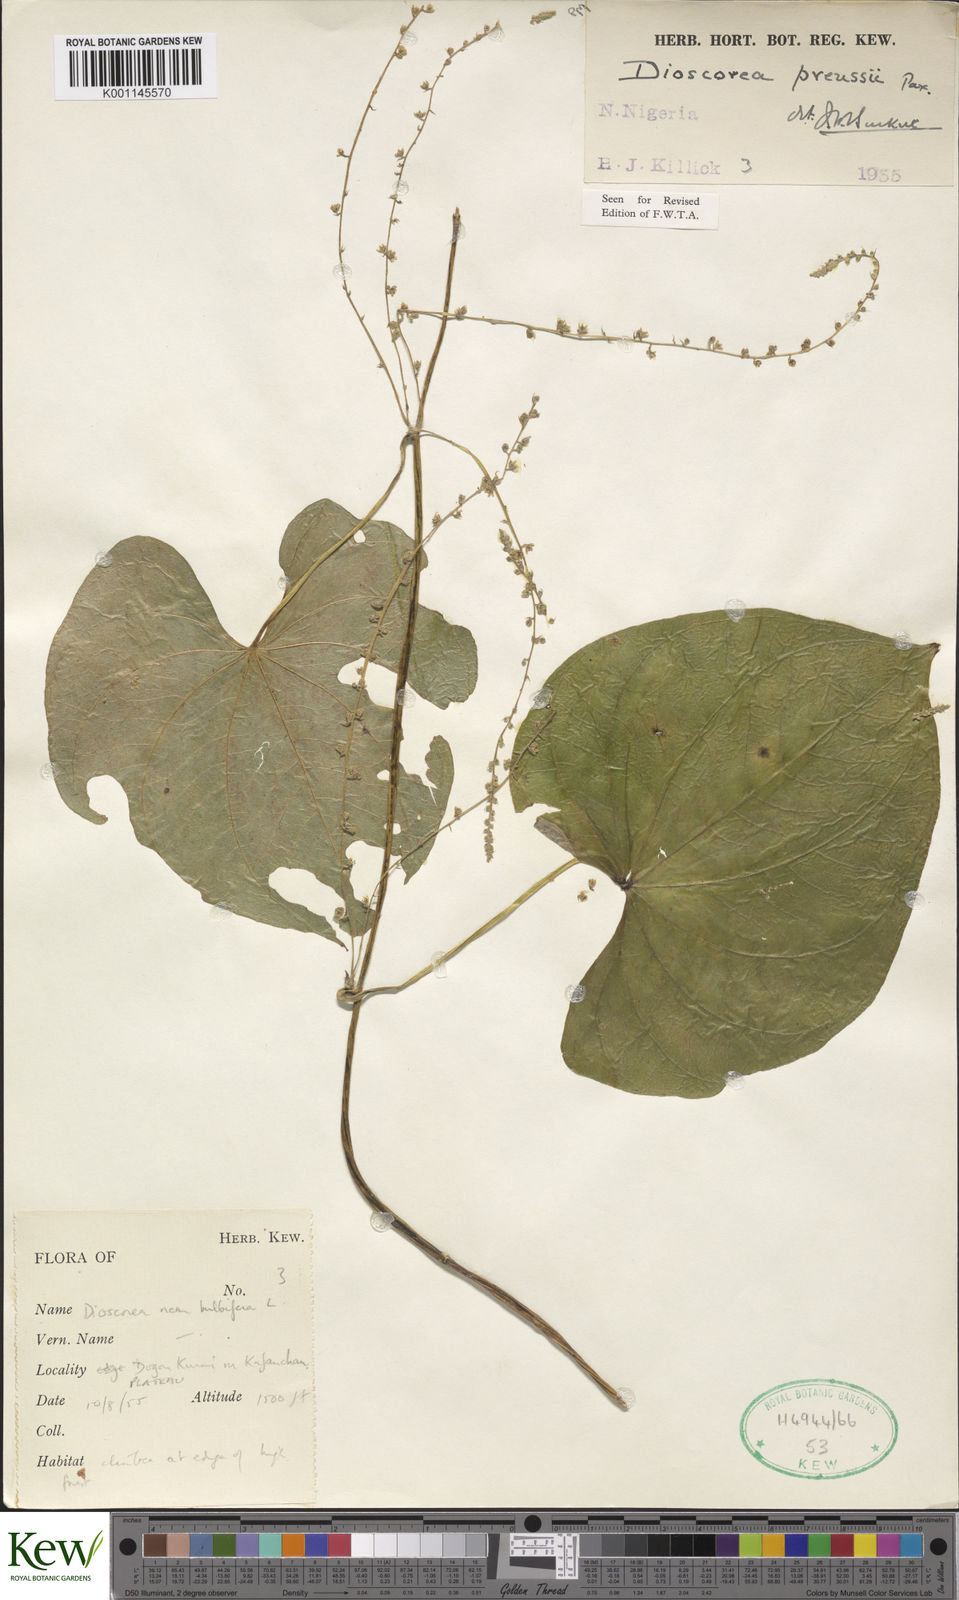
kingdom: Plantae
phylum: Tracheophyta
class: Liliopsida
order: Dioscoreales
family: Dioscoreaceae
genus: Dioscorea
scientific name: Dioscorea preussii
